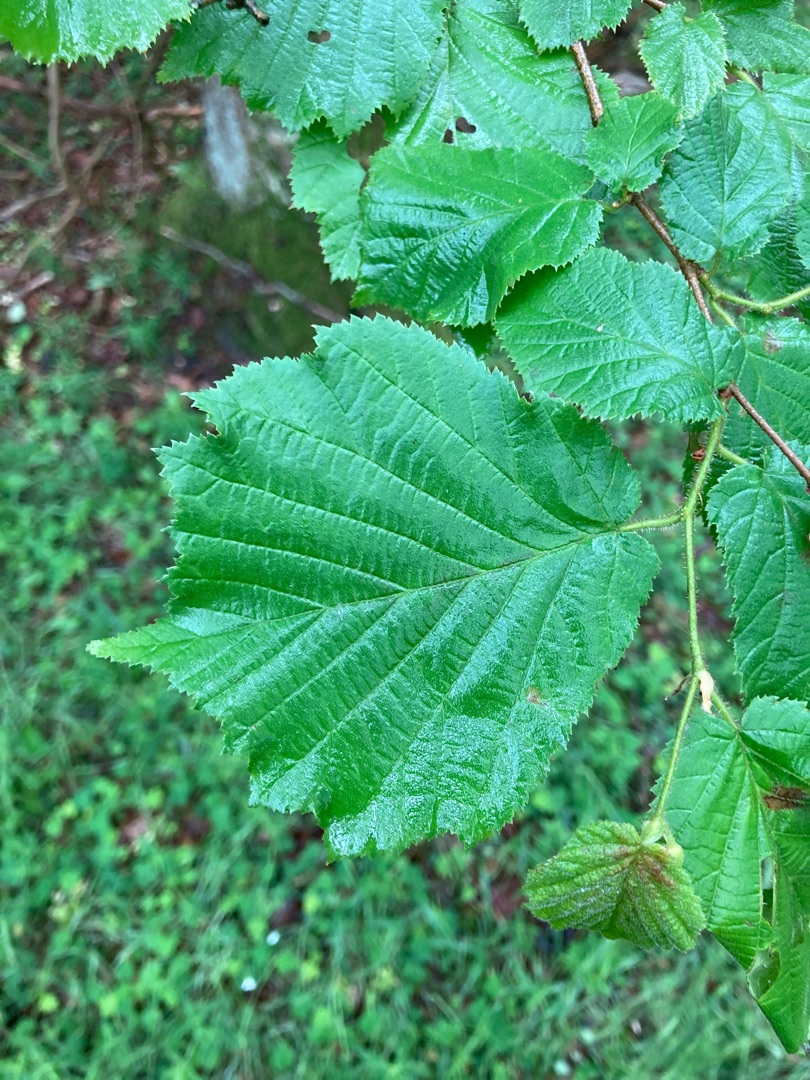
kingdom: Plantae
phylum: Tracheophyta
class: Magnoliopsida
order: Fagales
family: Betulaceae
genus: Corylus
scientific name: Corylus avellana
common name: Hassel
